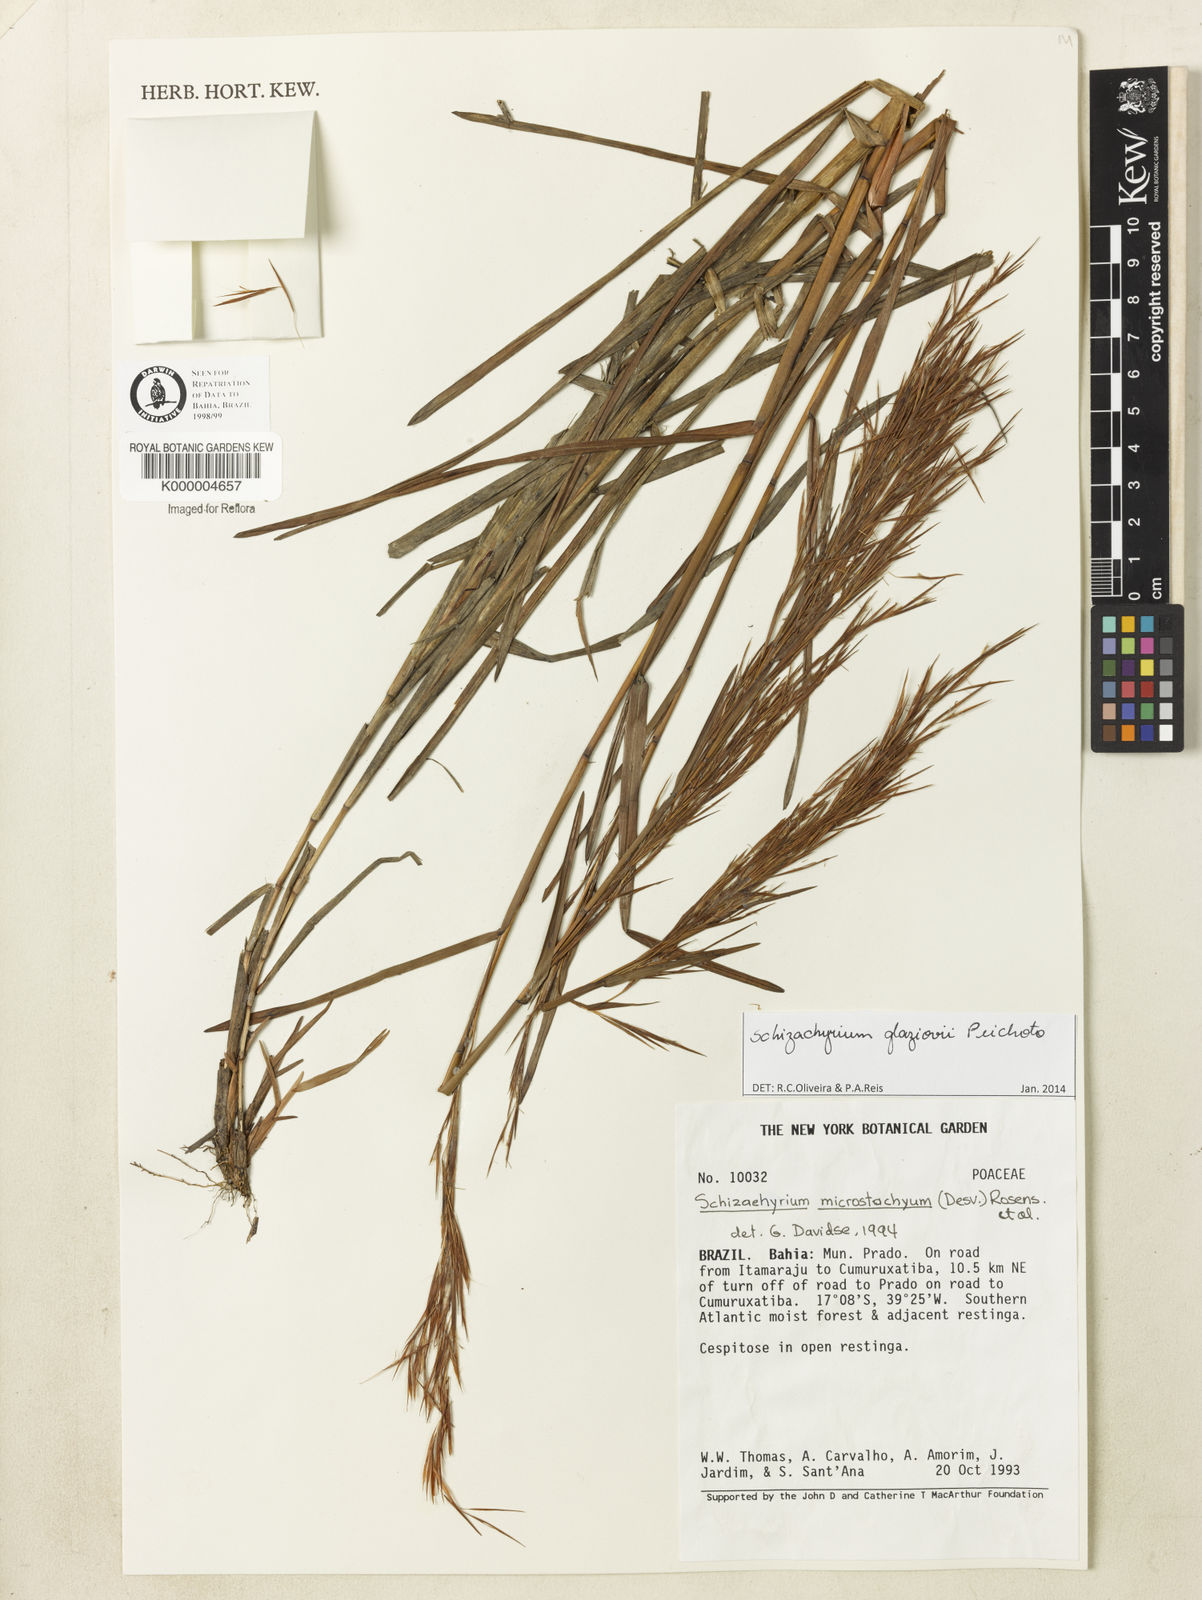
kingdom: Plantae
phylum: Tracheophyta
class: Liliopsida
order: Poales
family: Poaceae
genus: Schizachyrium
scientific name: Schizachyrium condensatum
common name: Bush beardgrass
